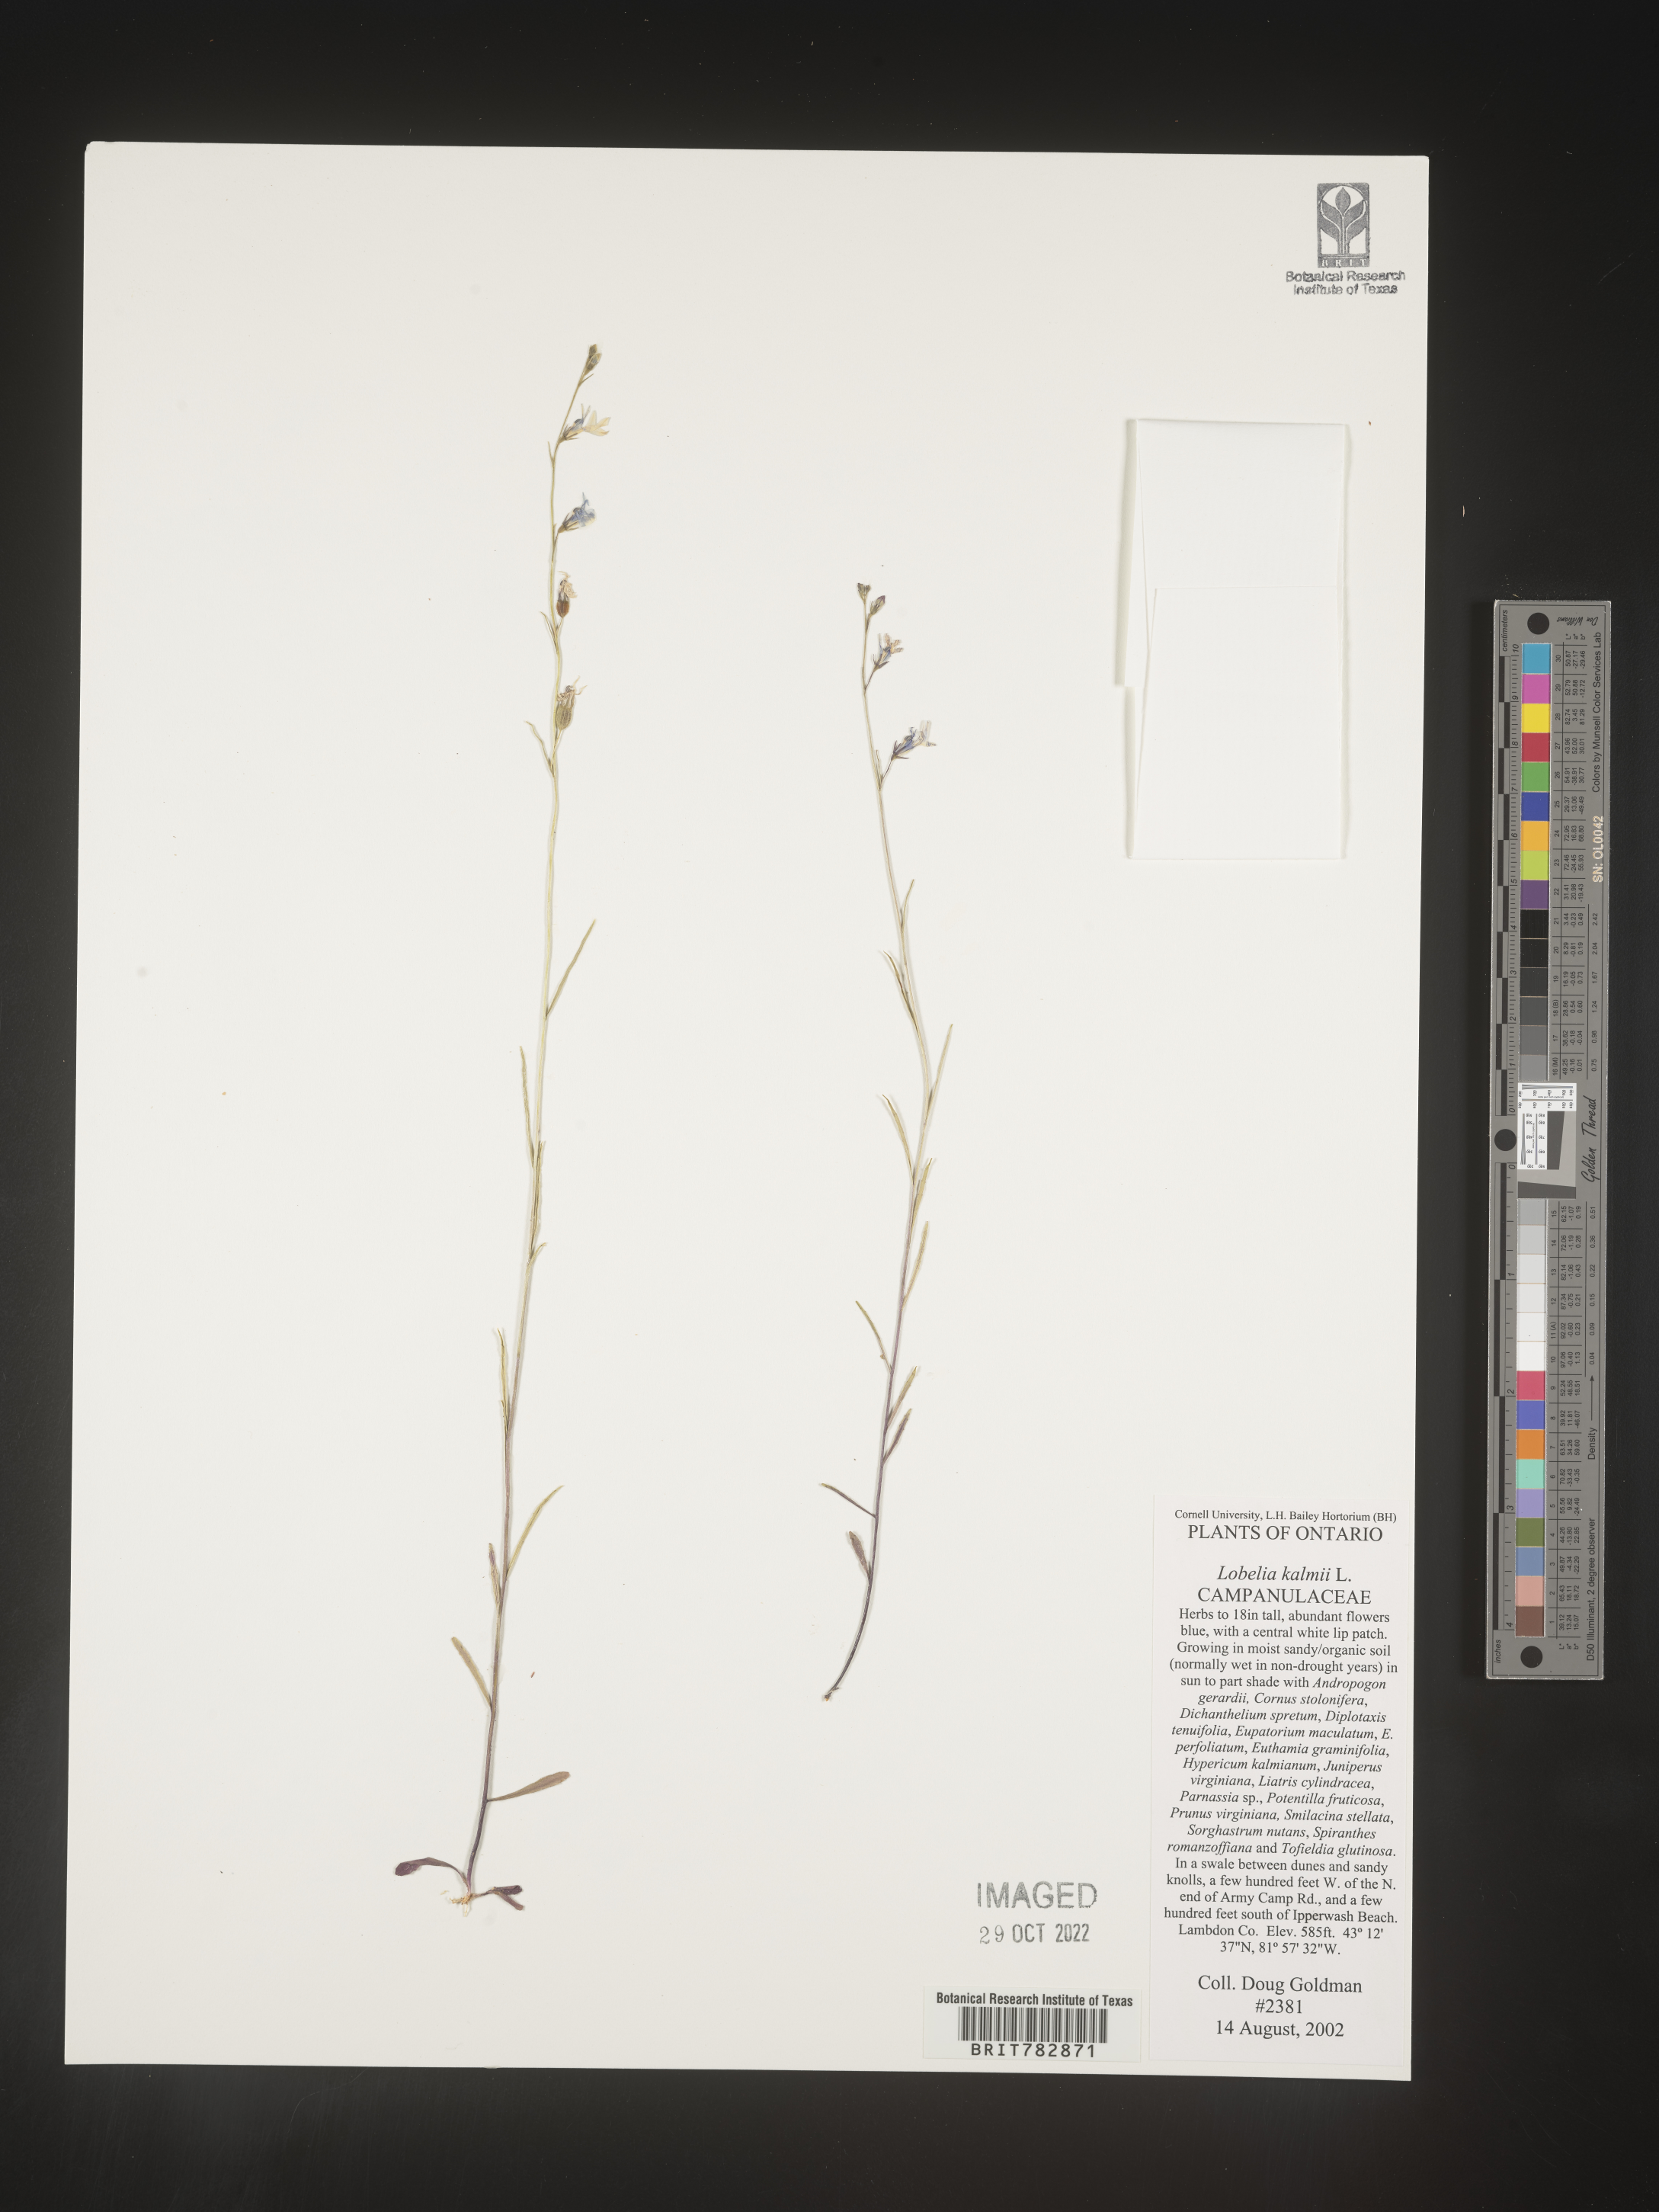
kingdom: Plantae
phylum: Tracheophyta
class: Magnoliopsida
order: Asterales
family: Campanulaceae
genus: Lobelia
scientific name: Lobelia
